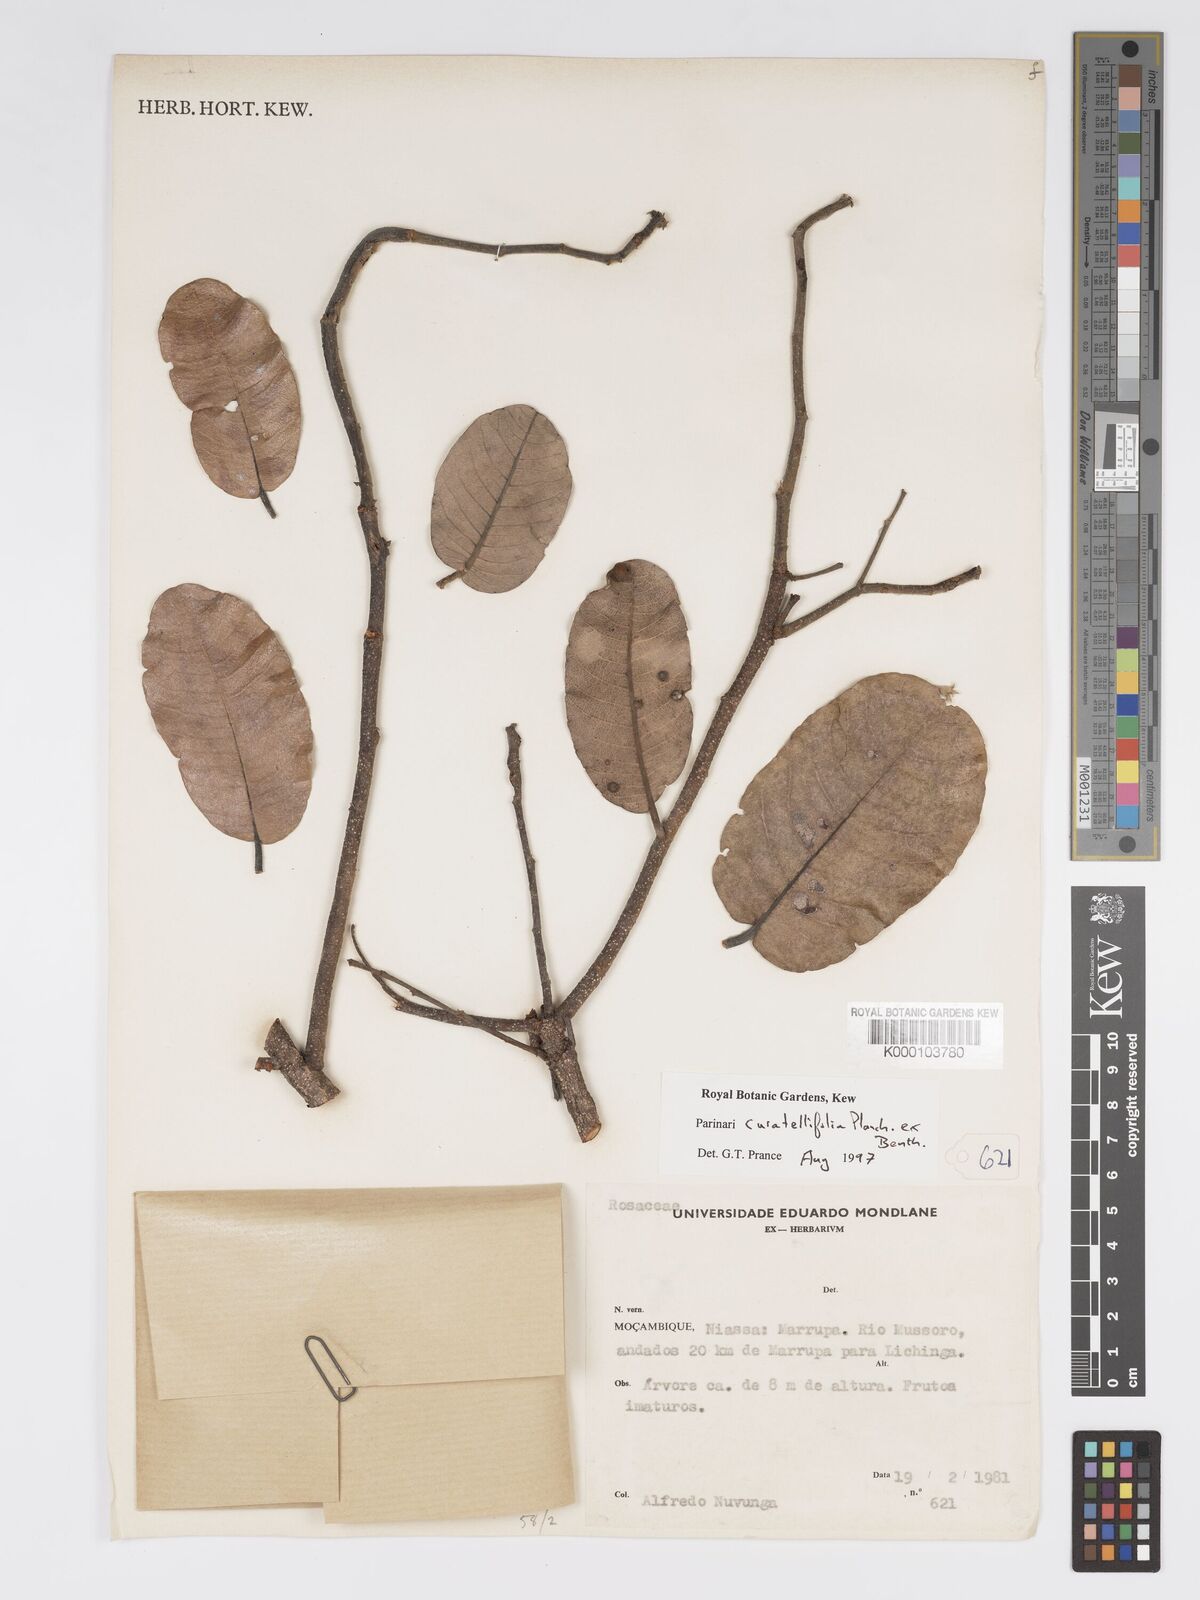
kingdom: Plantae
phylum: Tracheophyta
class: Magnoliopsida
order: Malpighiales
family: Chrysobalanaceae
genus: Parinari
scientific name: Parinari curatellifolia
